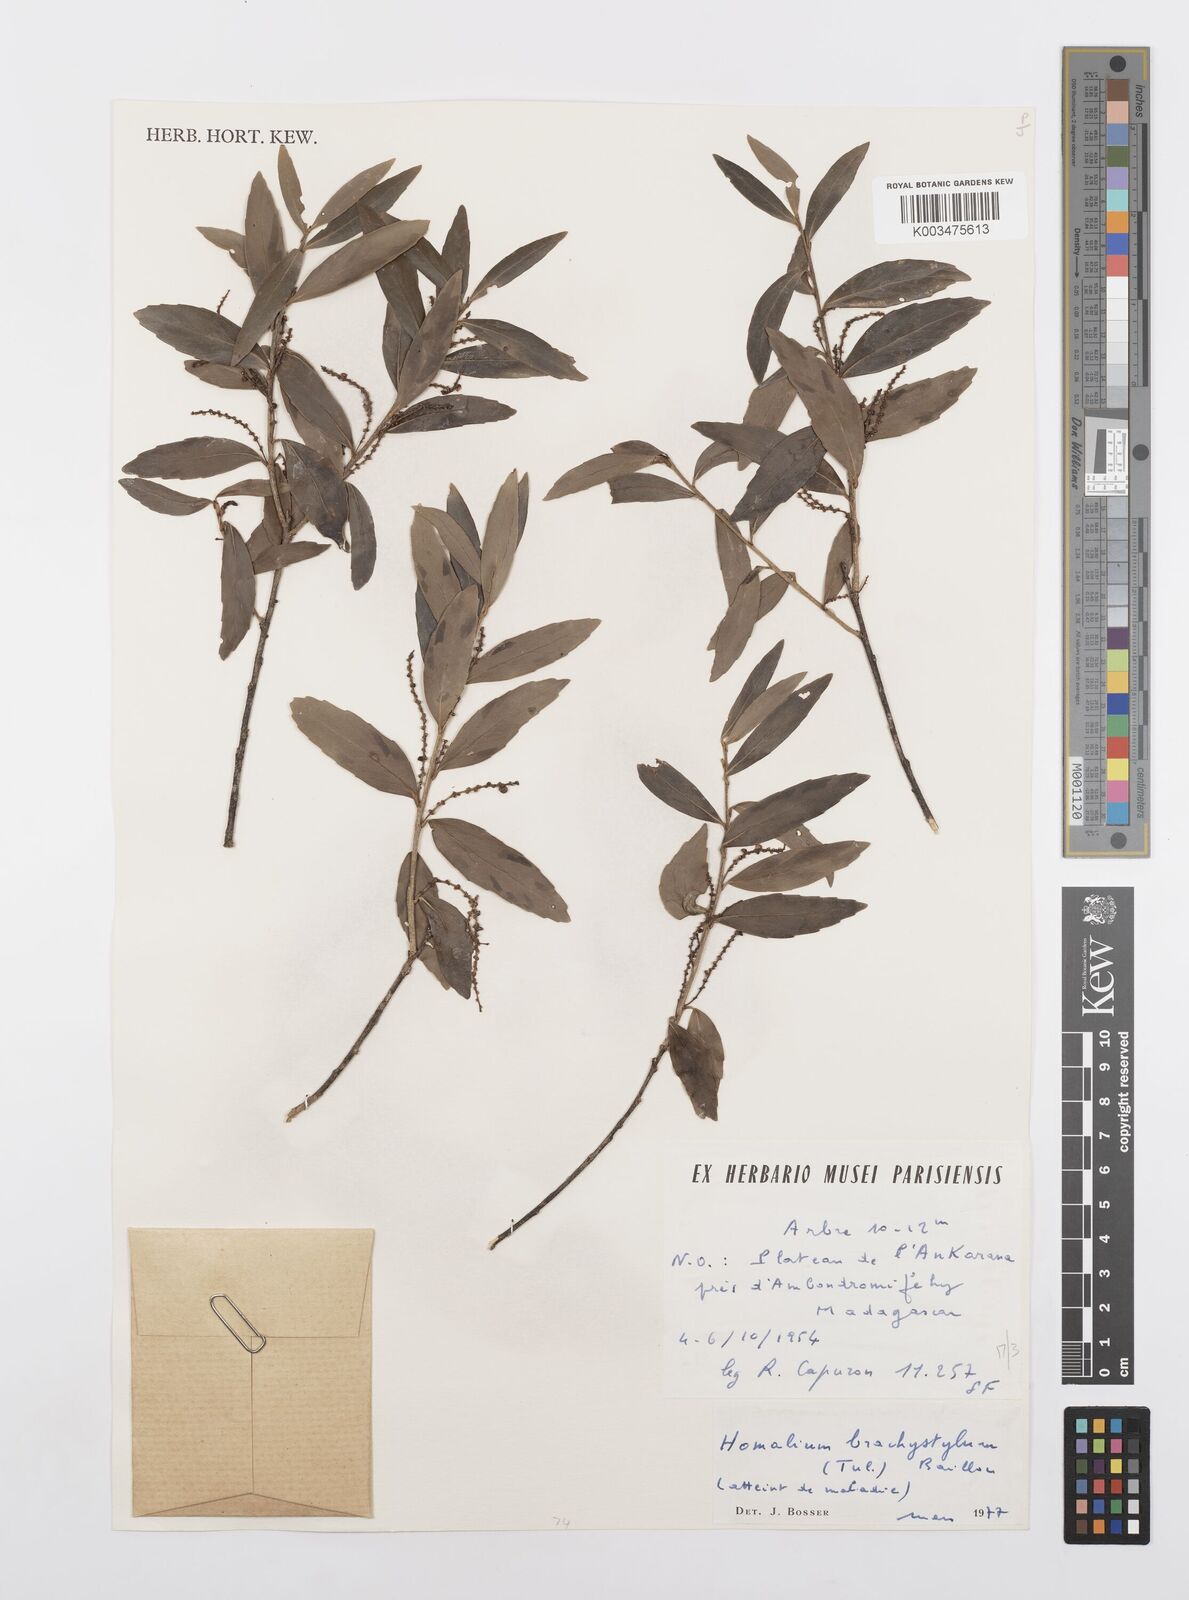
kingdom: Plantae
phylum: Tracheophyta
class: Magnoliopsida
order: Malpighiales
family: Salicaceae
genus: Homalium
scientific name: Homalium brachystylis
